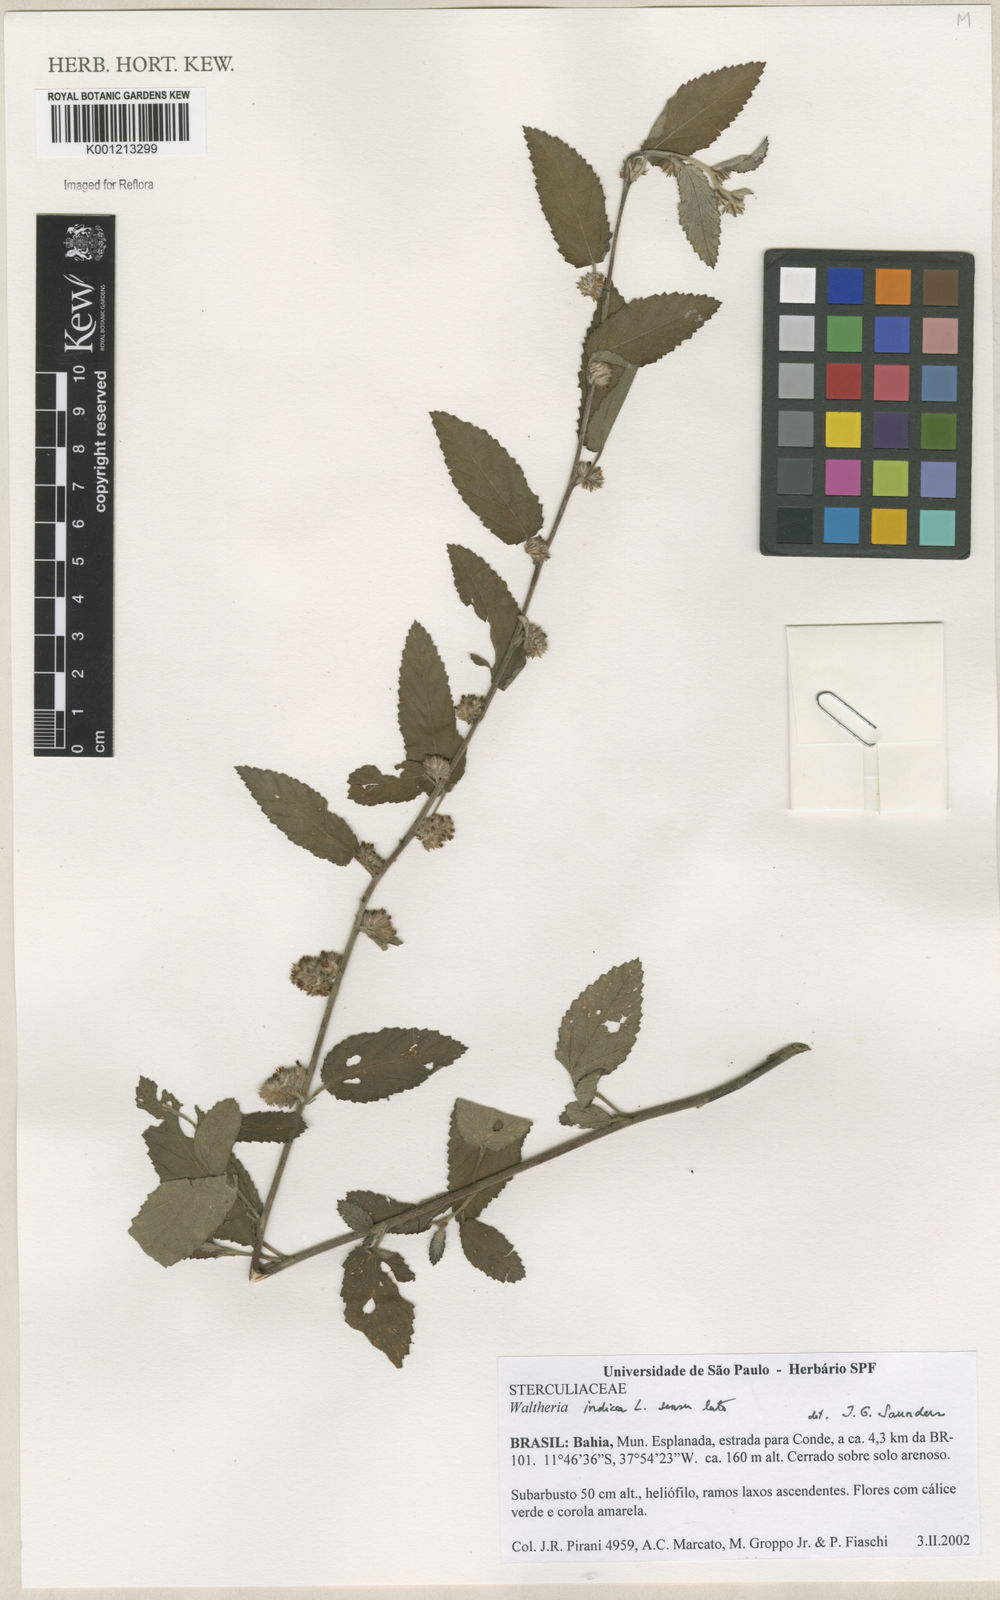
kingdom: Plantae
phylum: Tracheophyta
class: Magnoliopsida
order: Malvales
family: Malvaceae
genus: Waltheria
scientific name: Waltheria indica
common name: Leather-coat
